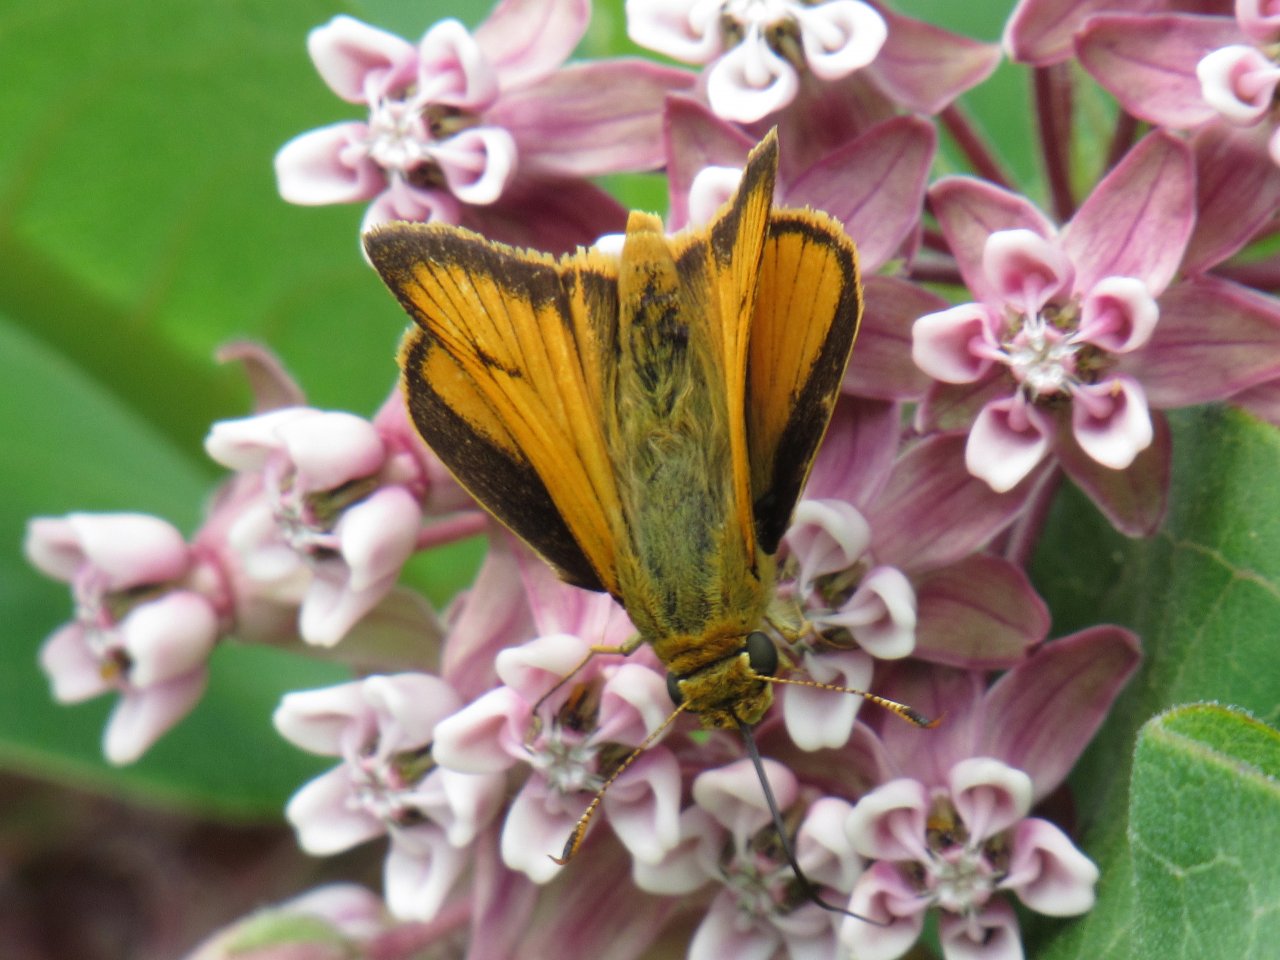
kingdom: Animalia
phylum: Arthropoda
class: Insecta
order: Lepidoptera
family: Hesperiidae
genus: Atrytone
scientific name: Atrytone delaware
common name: Delaware Skipper
